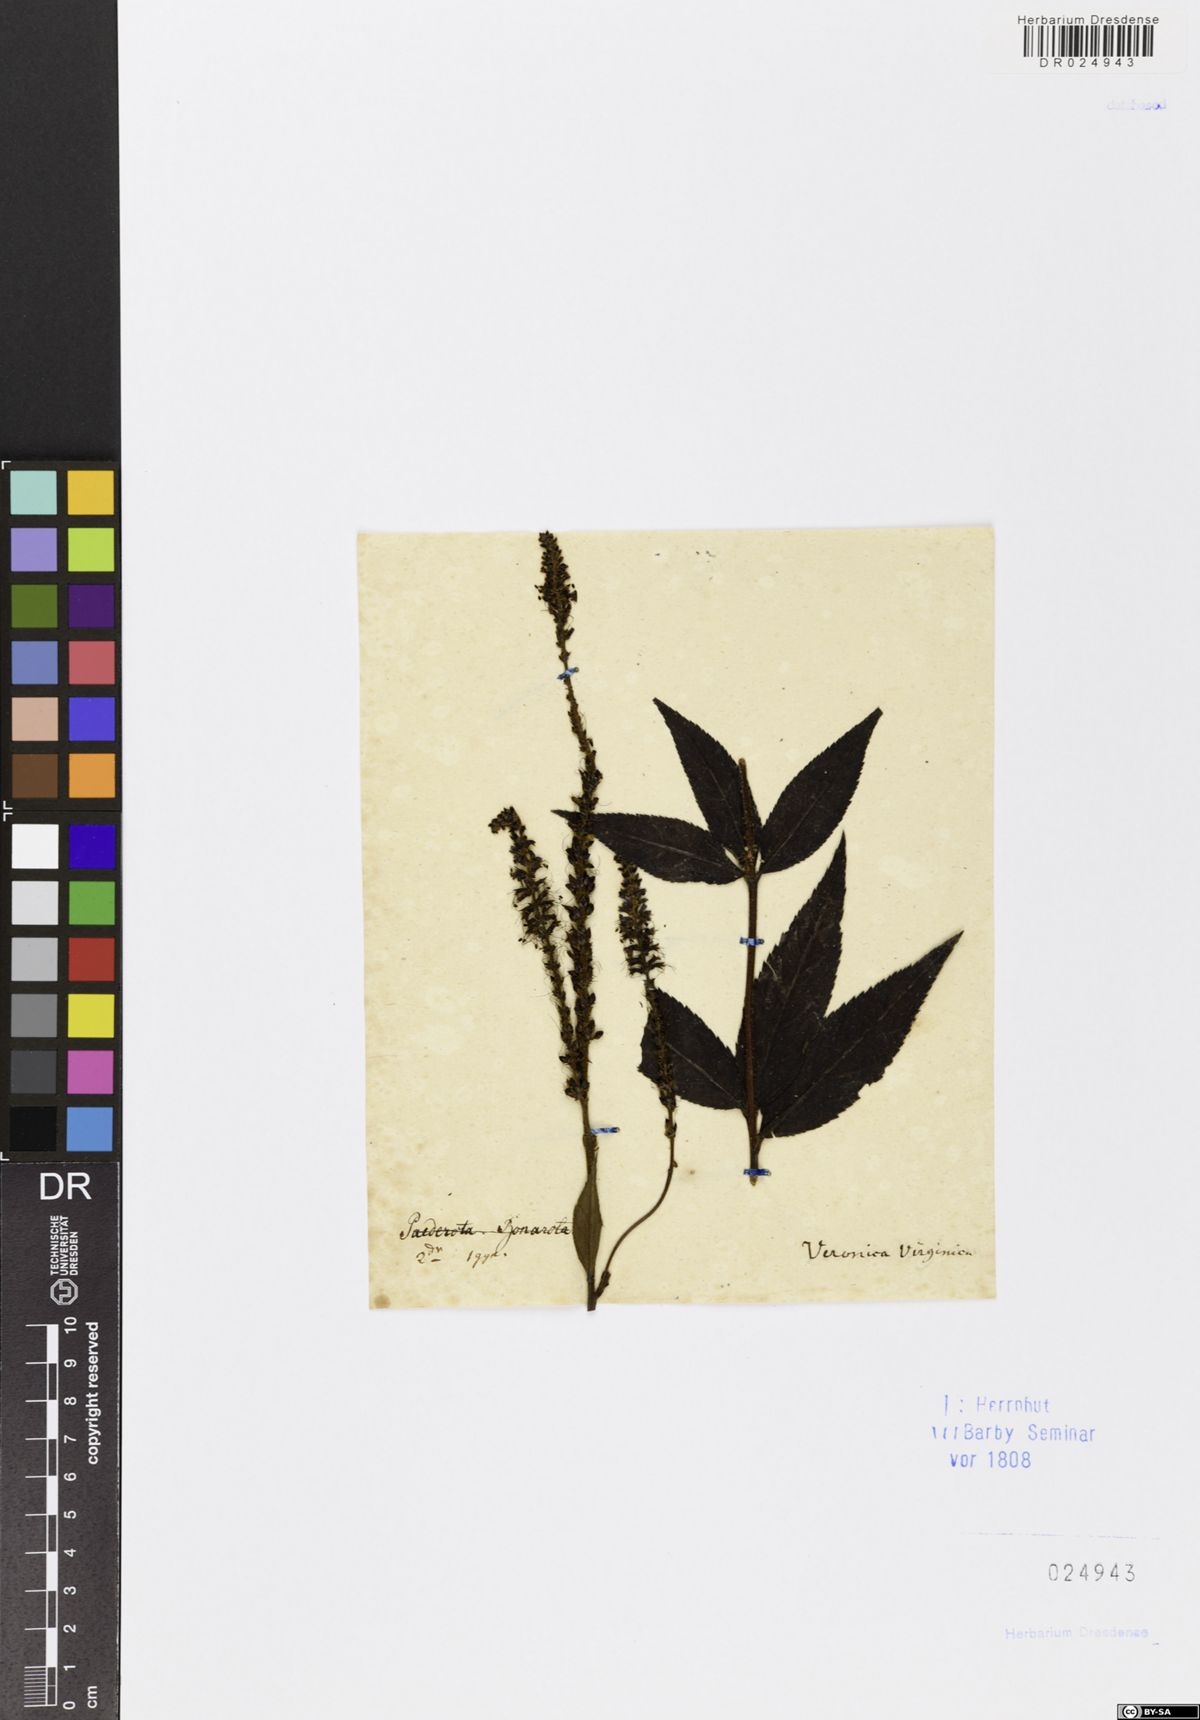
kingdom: Plantae
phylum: Tracheophyta
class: Magnoliopsida
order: Lamiales
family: Plantaginaceae
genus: Veronicastrum
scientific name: Veronicastrum virginicum
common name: Blackroot
